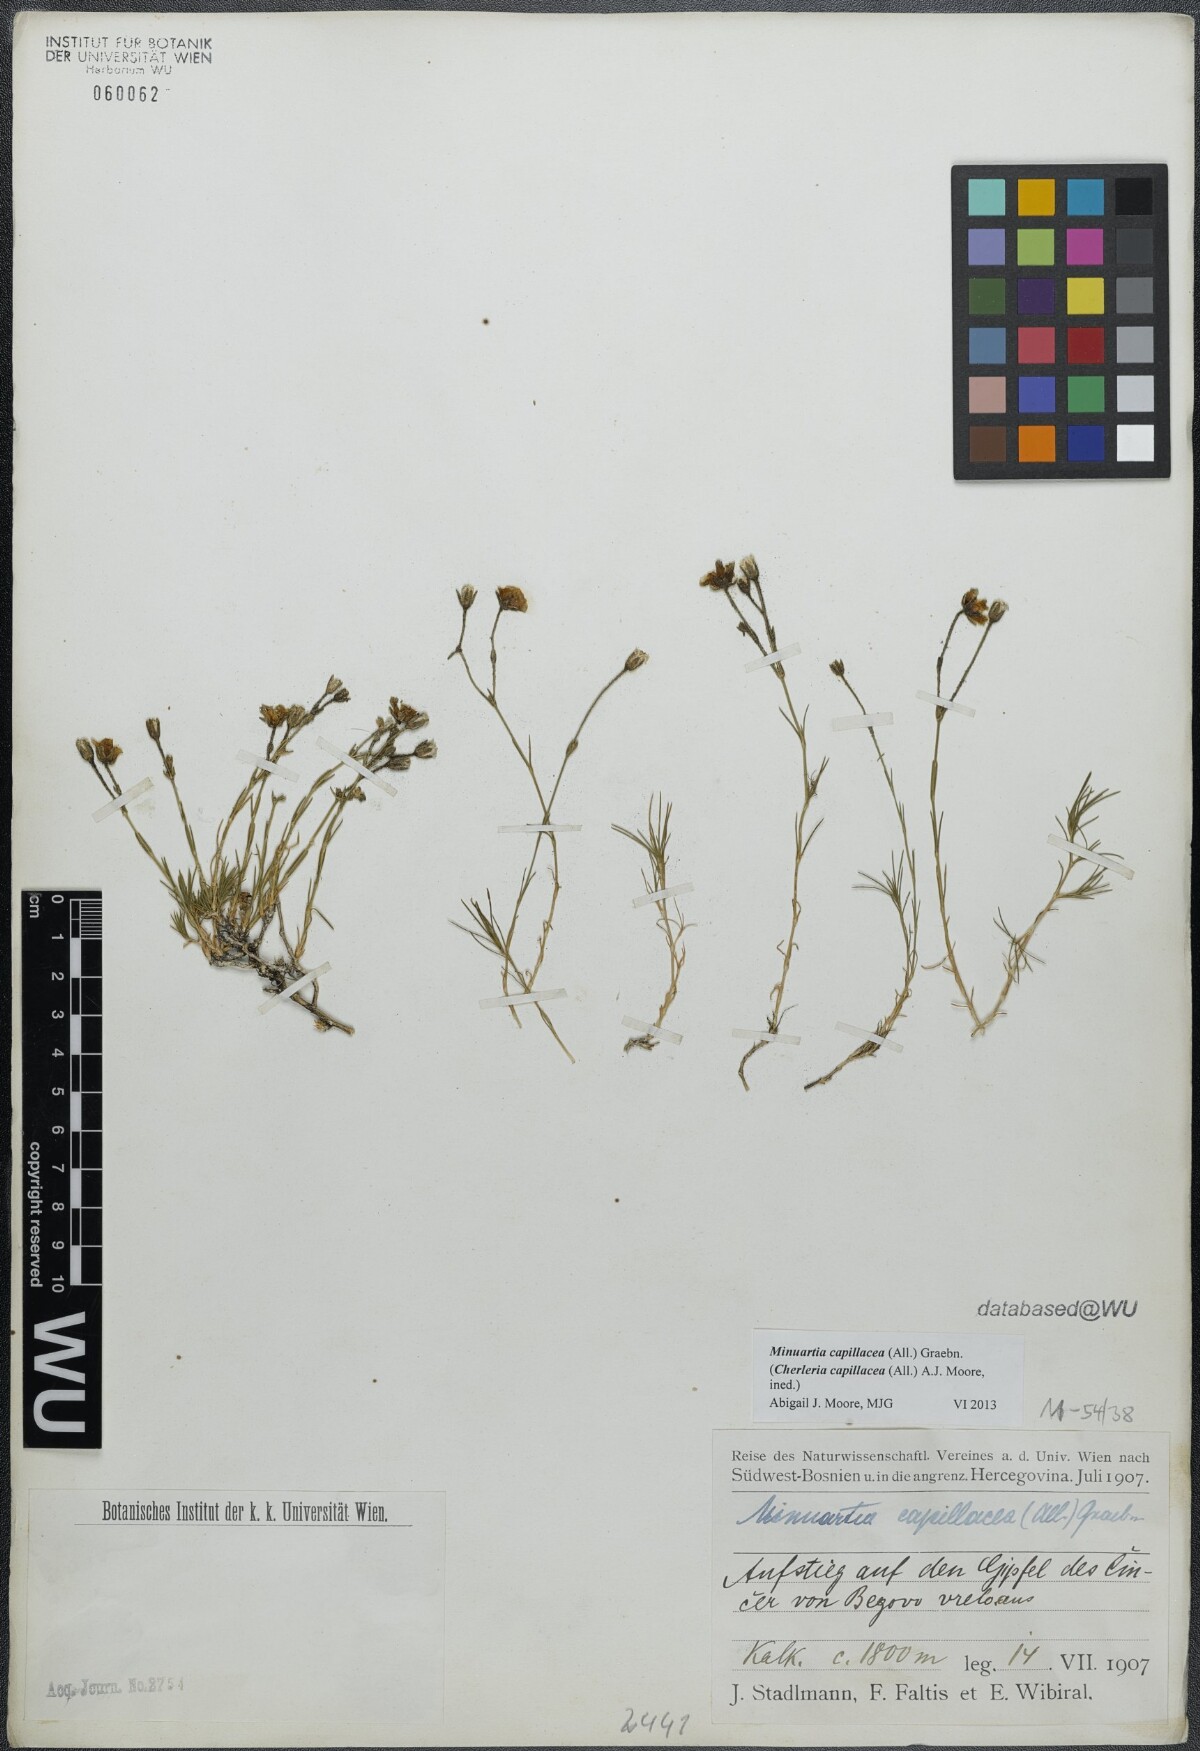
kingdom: Plantae
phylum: Tracheophyta
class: Magnoliopsida
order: Caryophyllales
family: Caryophyllaceae
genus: Cherleria
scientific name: Cherleria capillacea
